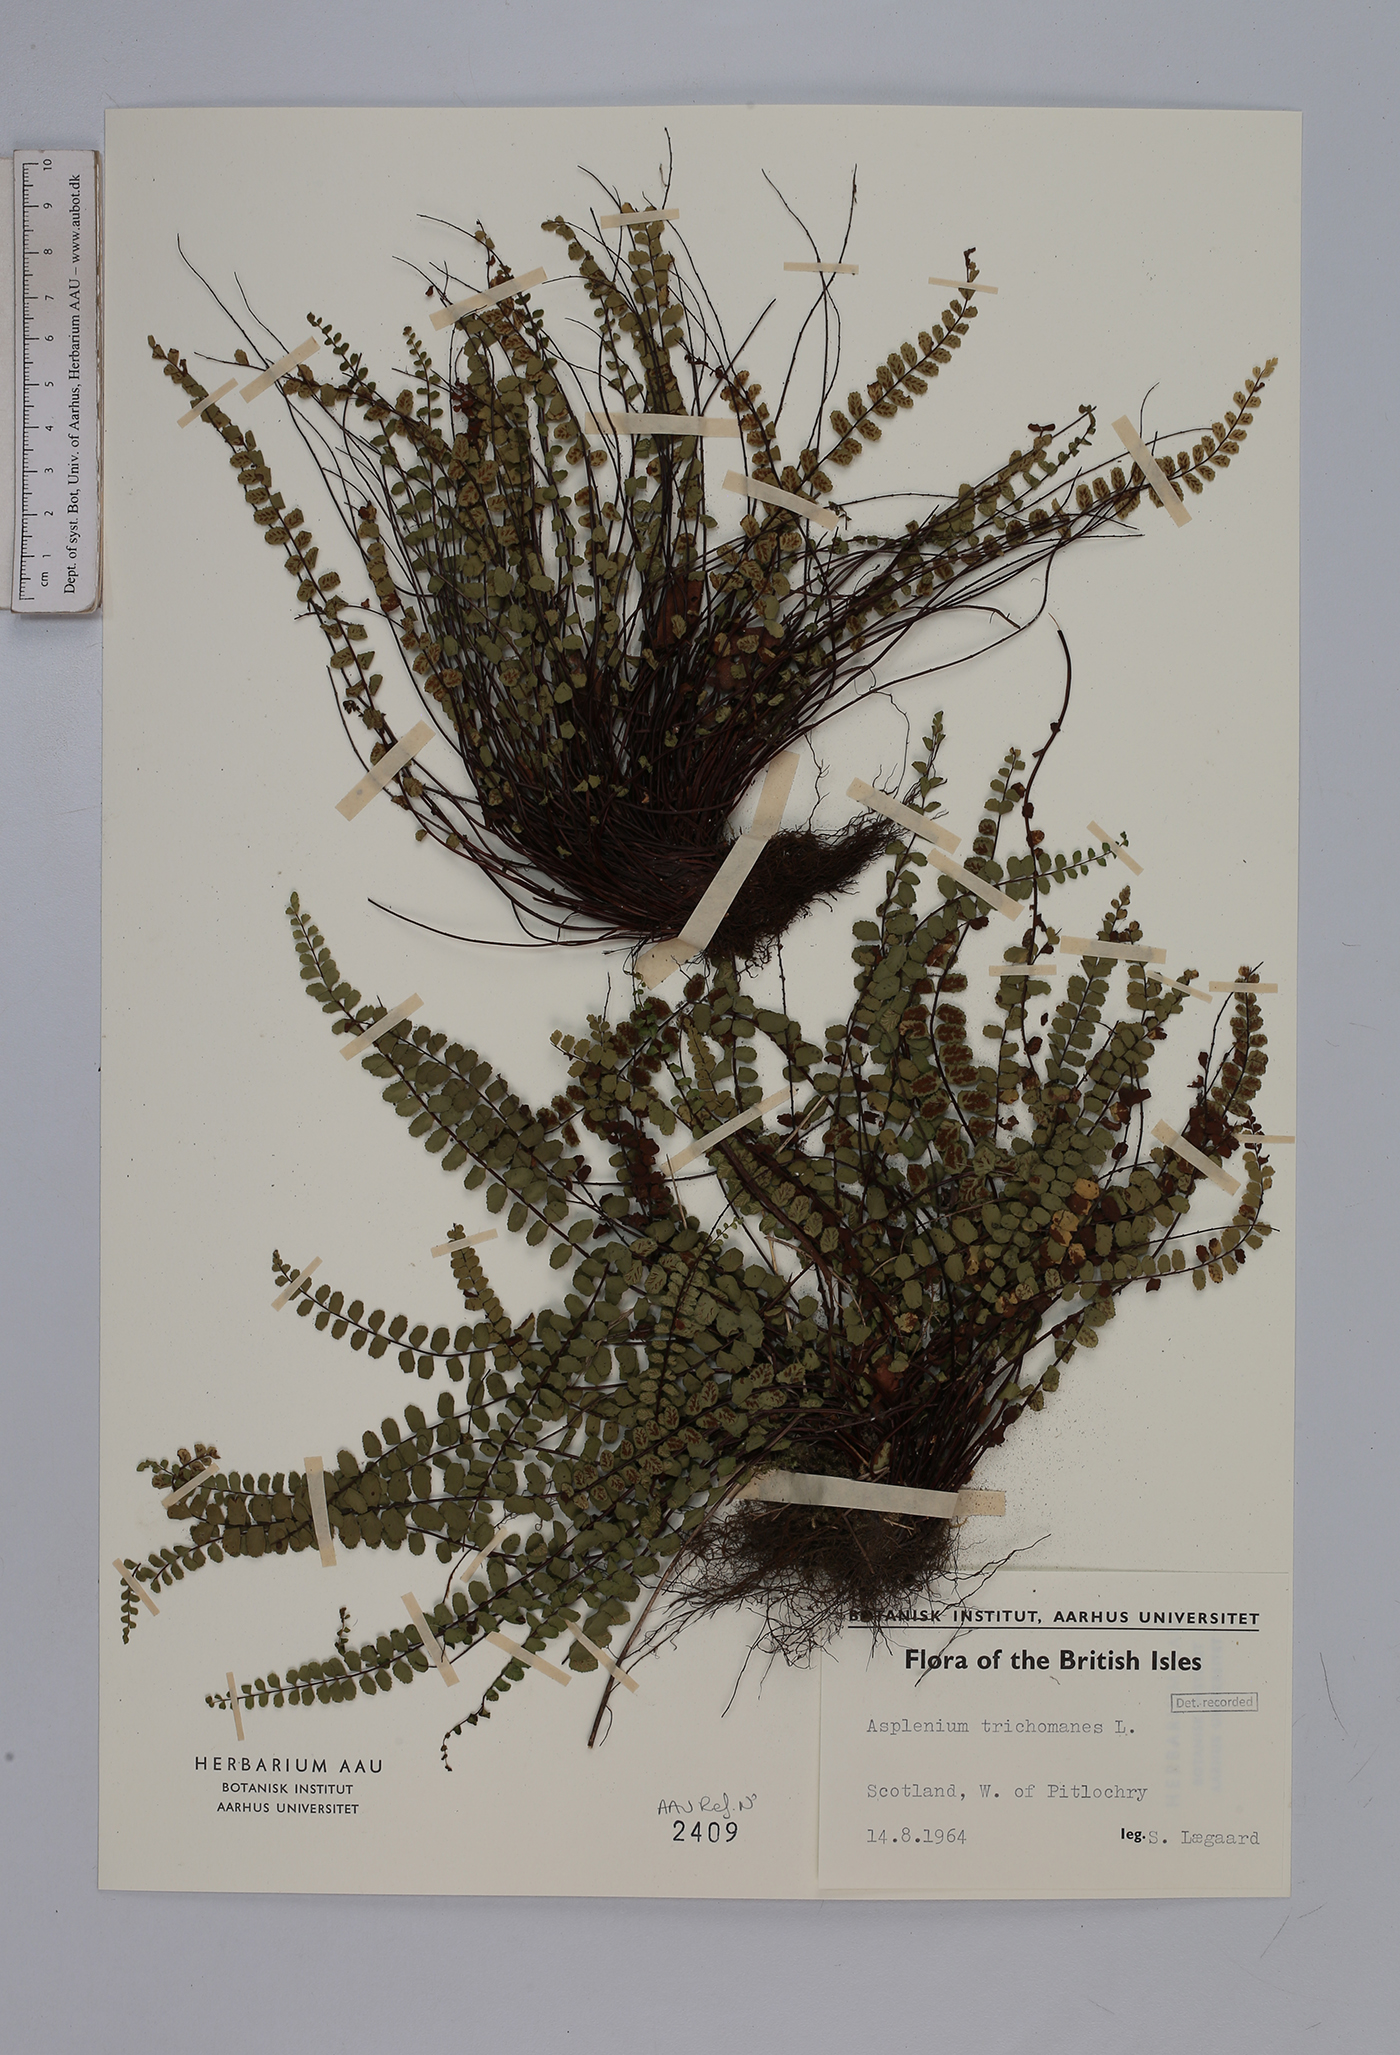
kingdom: Plantae
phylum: Tracheophyta
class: Polypodiopsida
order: Polypodiales
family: Aspleniaceae
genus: Asplenium
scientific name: Asplenium trichomanes
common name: Maidenhair spleenwort
